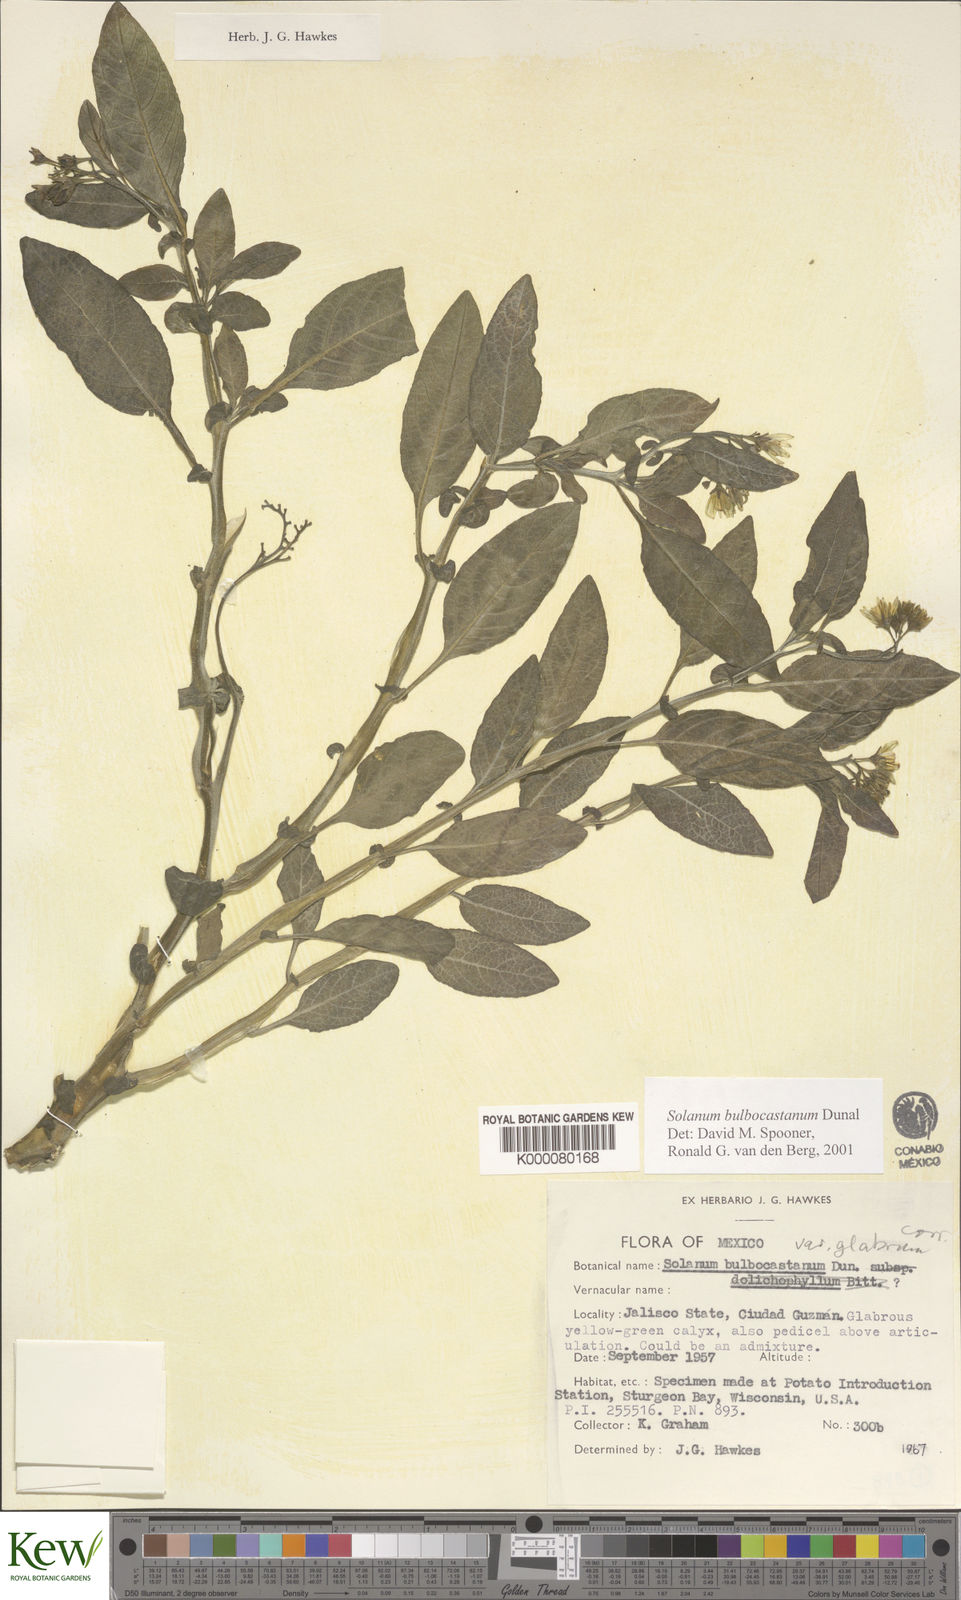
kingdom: Plantae
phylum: Tracheophyta
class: Magnoliopsida
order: Solanales
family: Solanaceae
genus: Solanum
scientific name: Solanum bulbocastanum
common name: Ornamental nightshade
